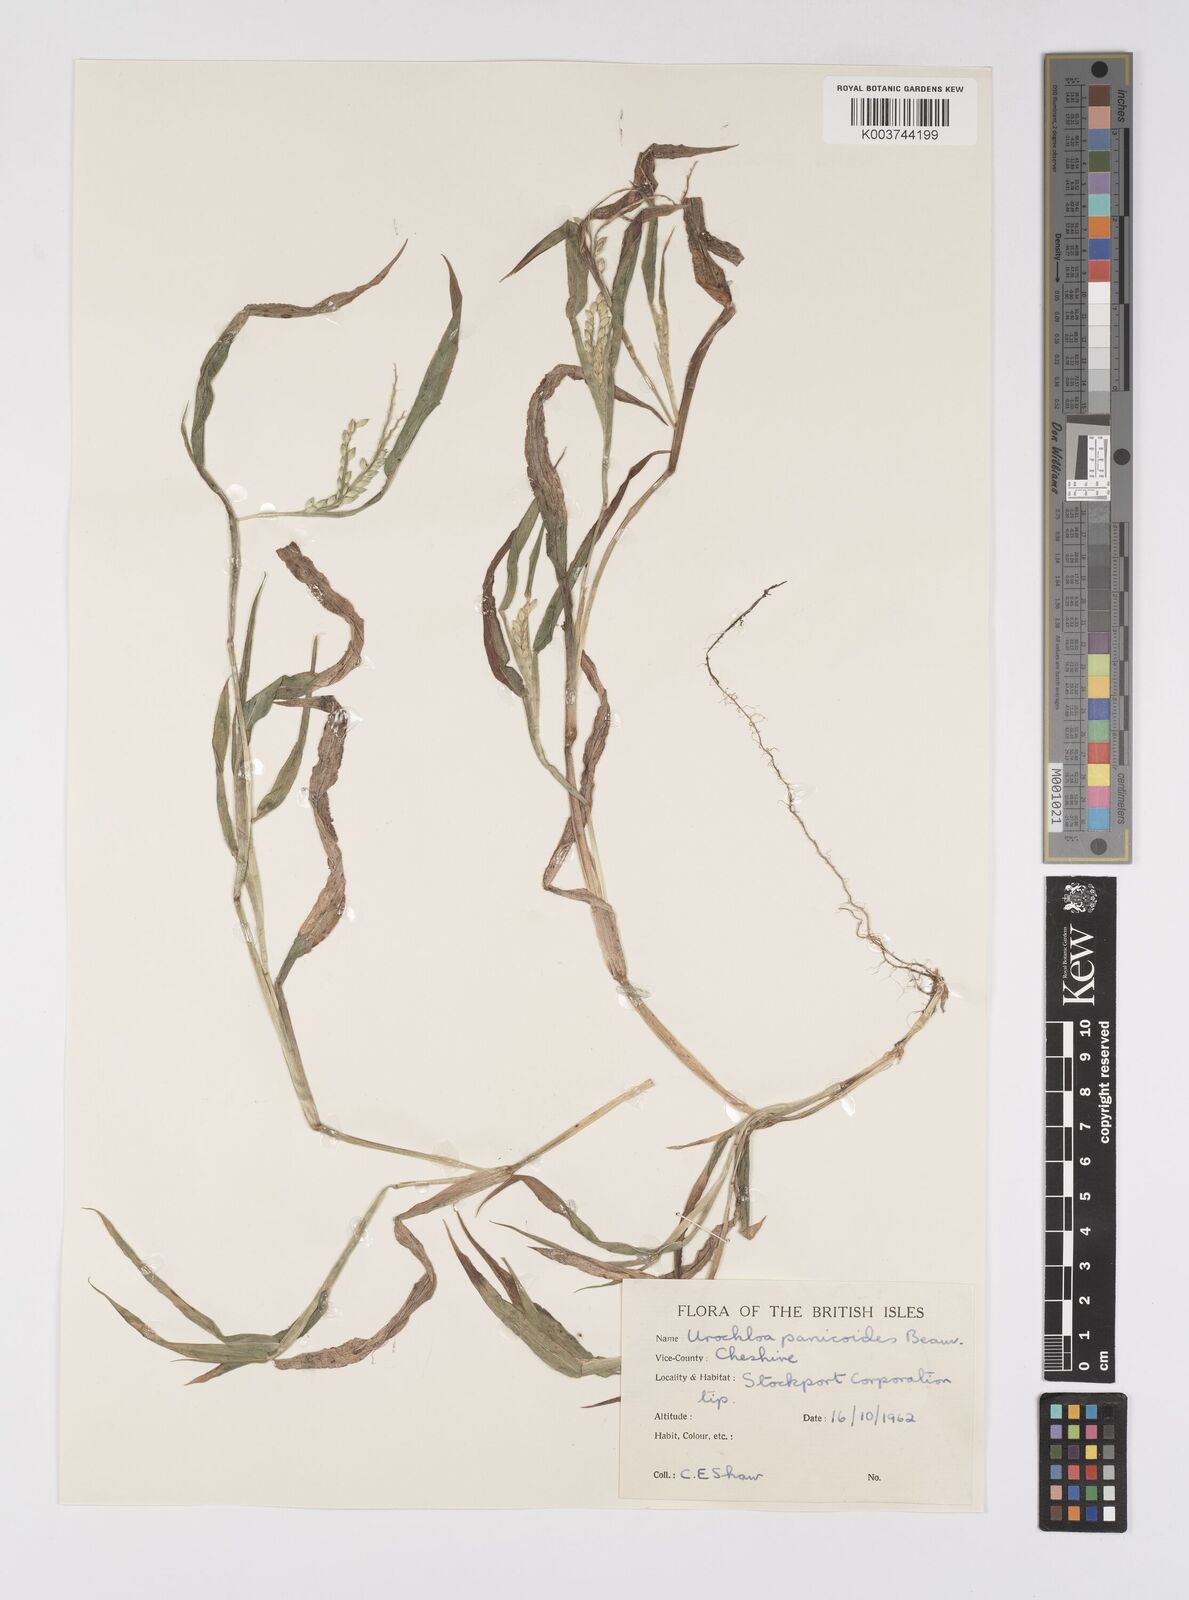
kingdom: Plantae
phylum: Tracheophyta
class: Liliopsida
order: Poales
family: Poaceae
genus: Urochloa
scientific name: Urochloa panicoides
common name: Sharp-flowered signal-grass
